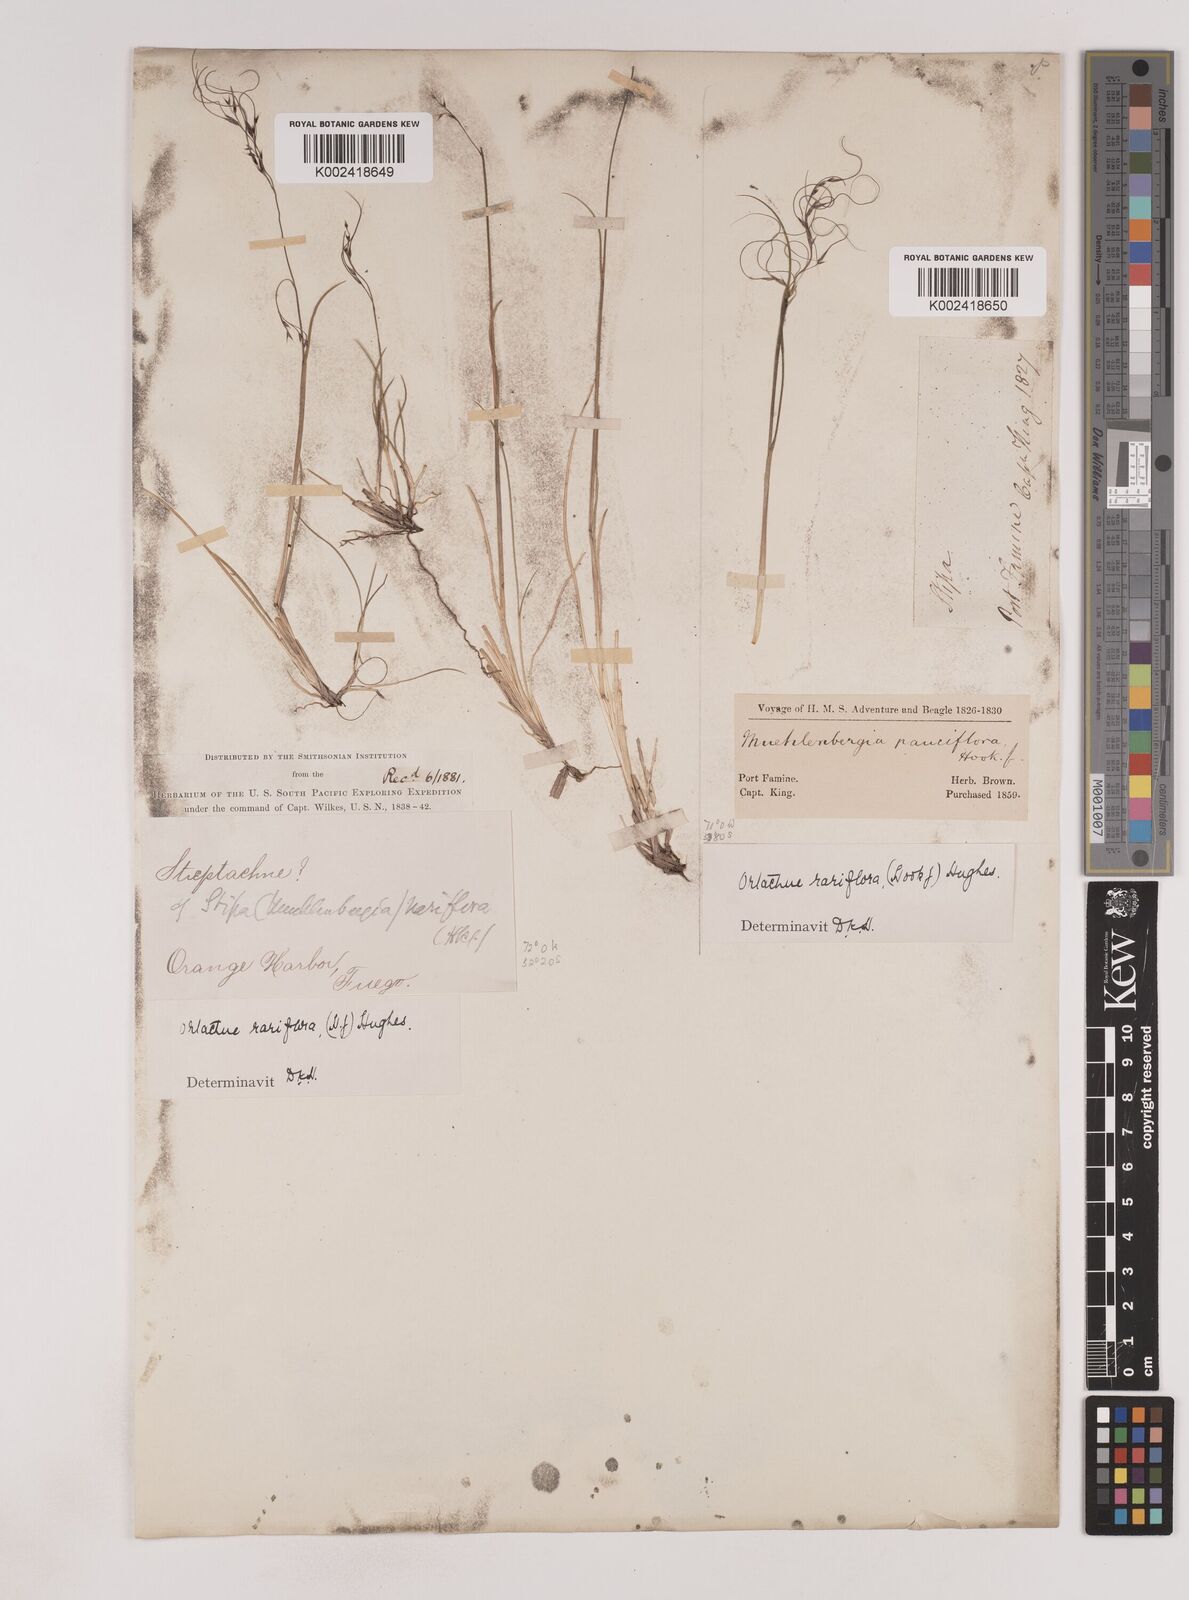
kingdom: Plantae
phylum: Tracheophyta
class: Liliopsida
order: Poales
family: Poaceae
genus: Ortachne
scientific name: Ortachne rariflora
